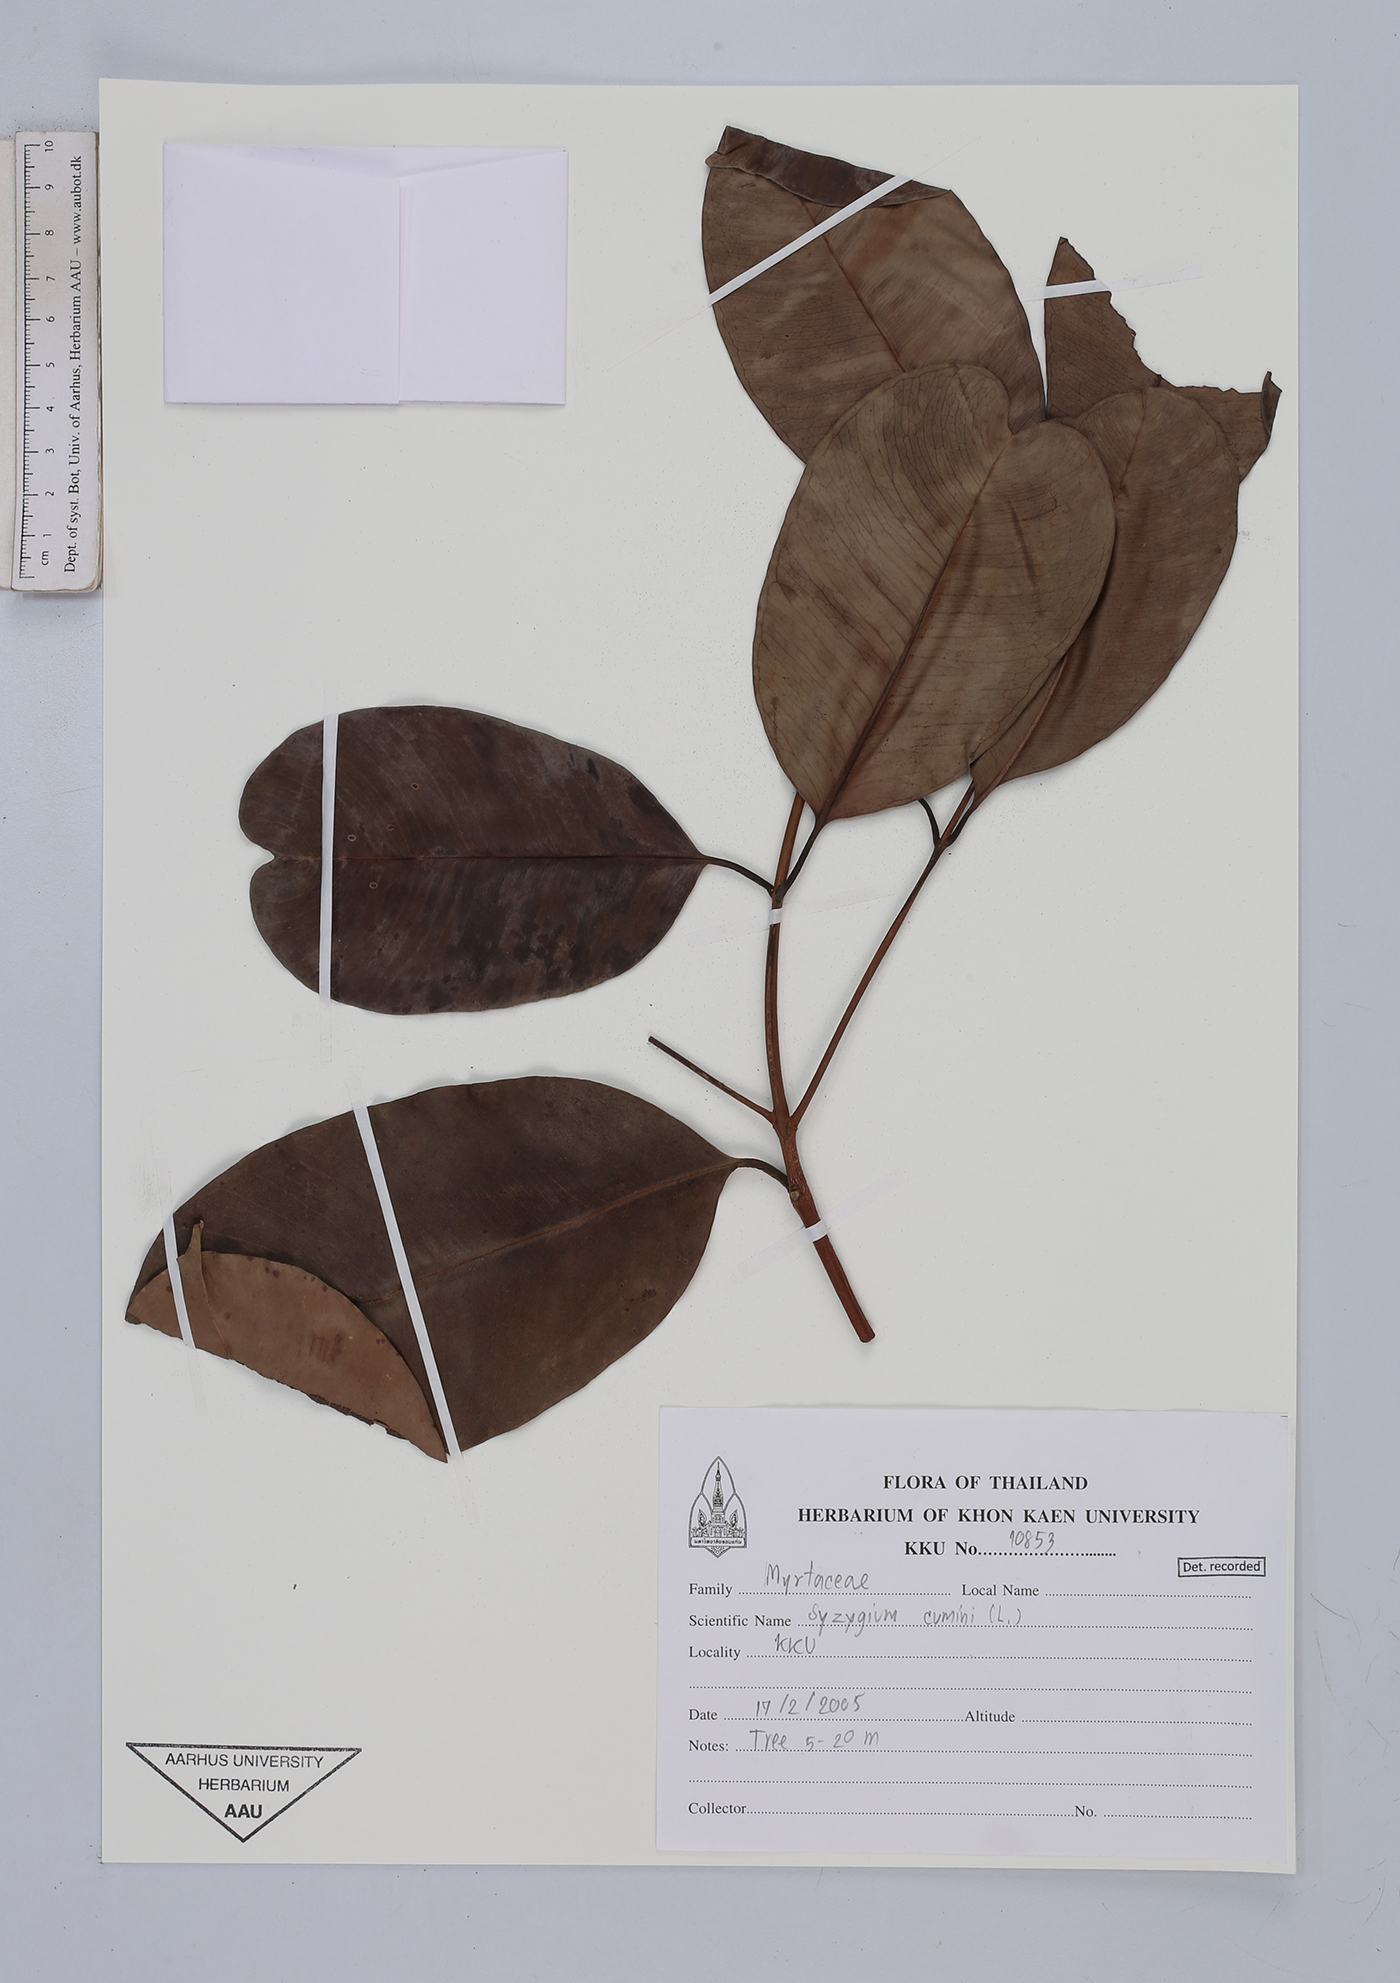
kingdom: Plantae
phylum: Tracheophyta
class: Magnoliopsida
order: Myrtales
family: Myrtaceae
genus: Syzygium
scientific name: Syzygium cumini
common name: Java plum
